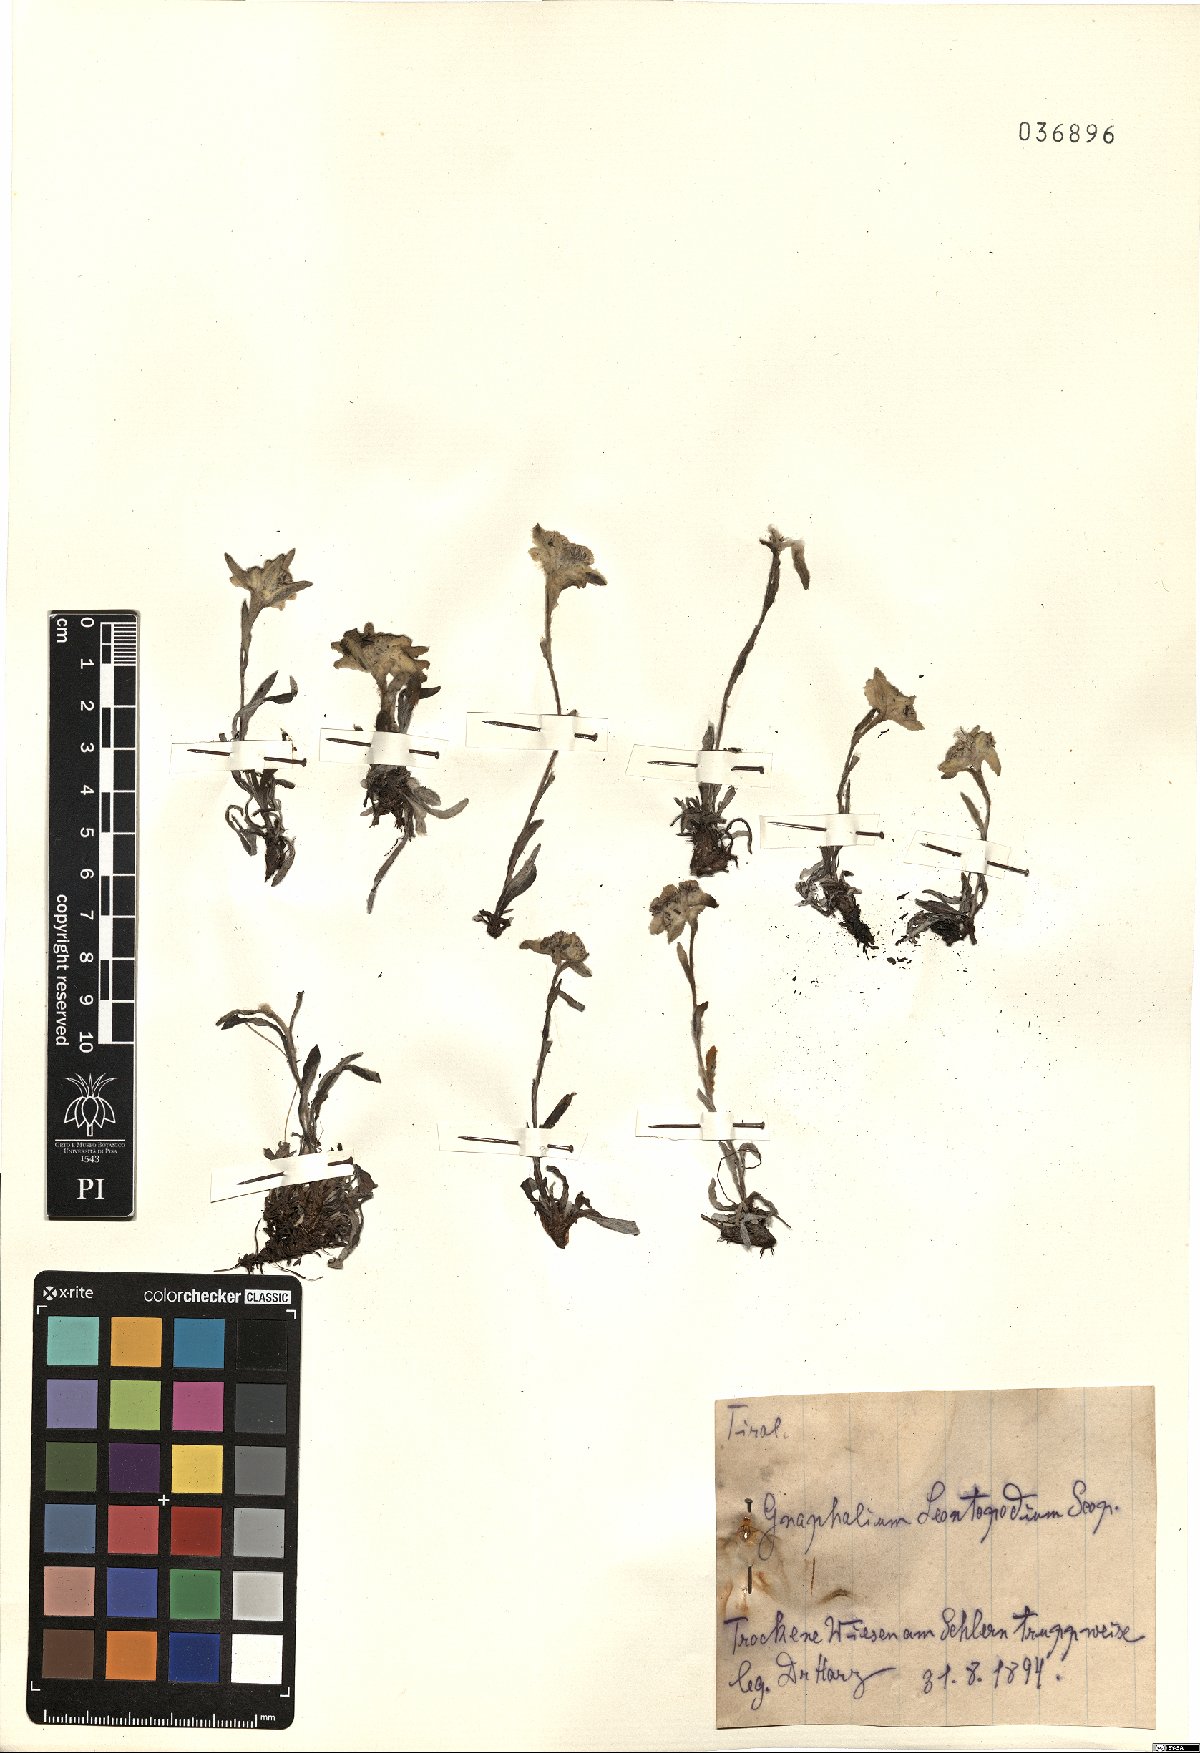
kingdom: Plantae
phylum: Tracheophyta
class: Magnoliopsida
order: Asterales
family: Asteraceae
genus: Leontopodium
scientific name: Leontopodium nivale
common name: Edelweiss
